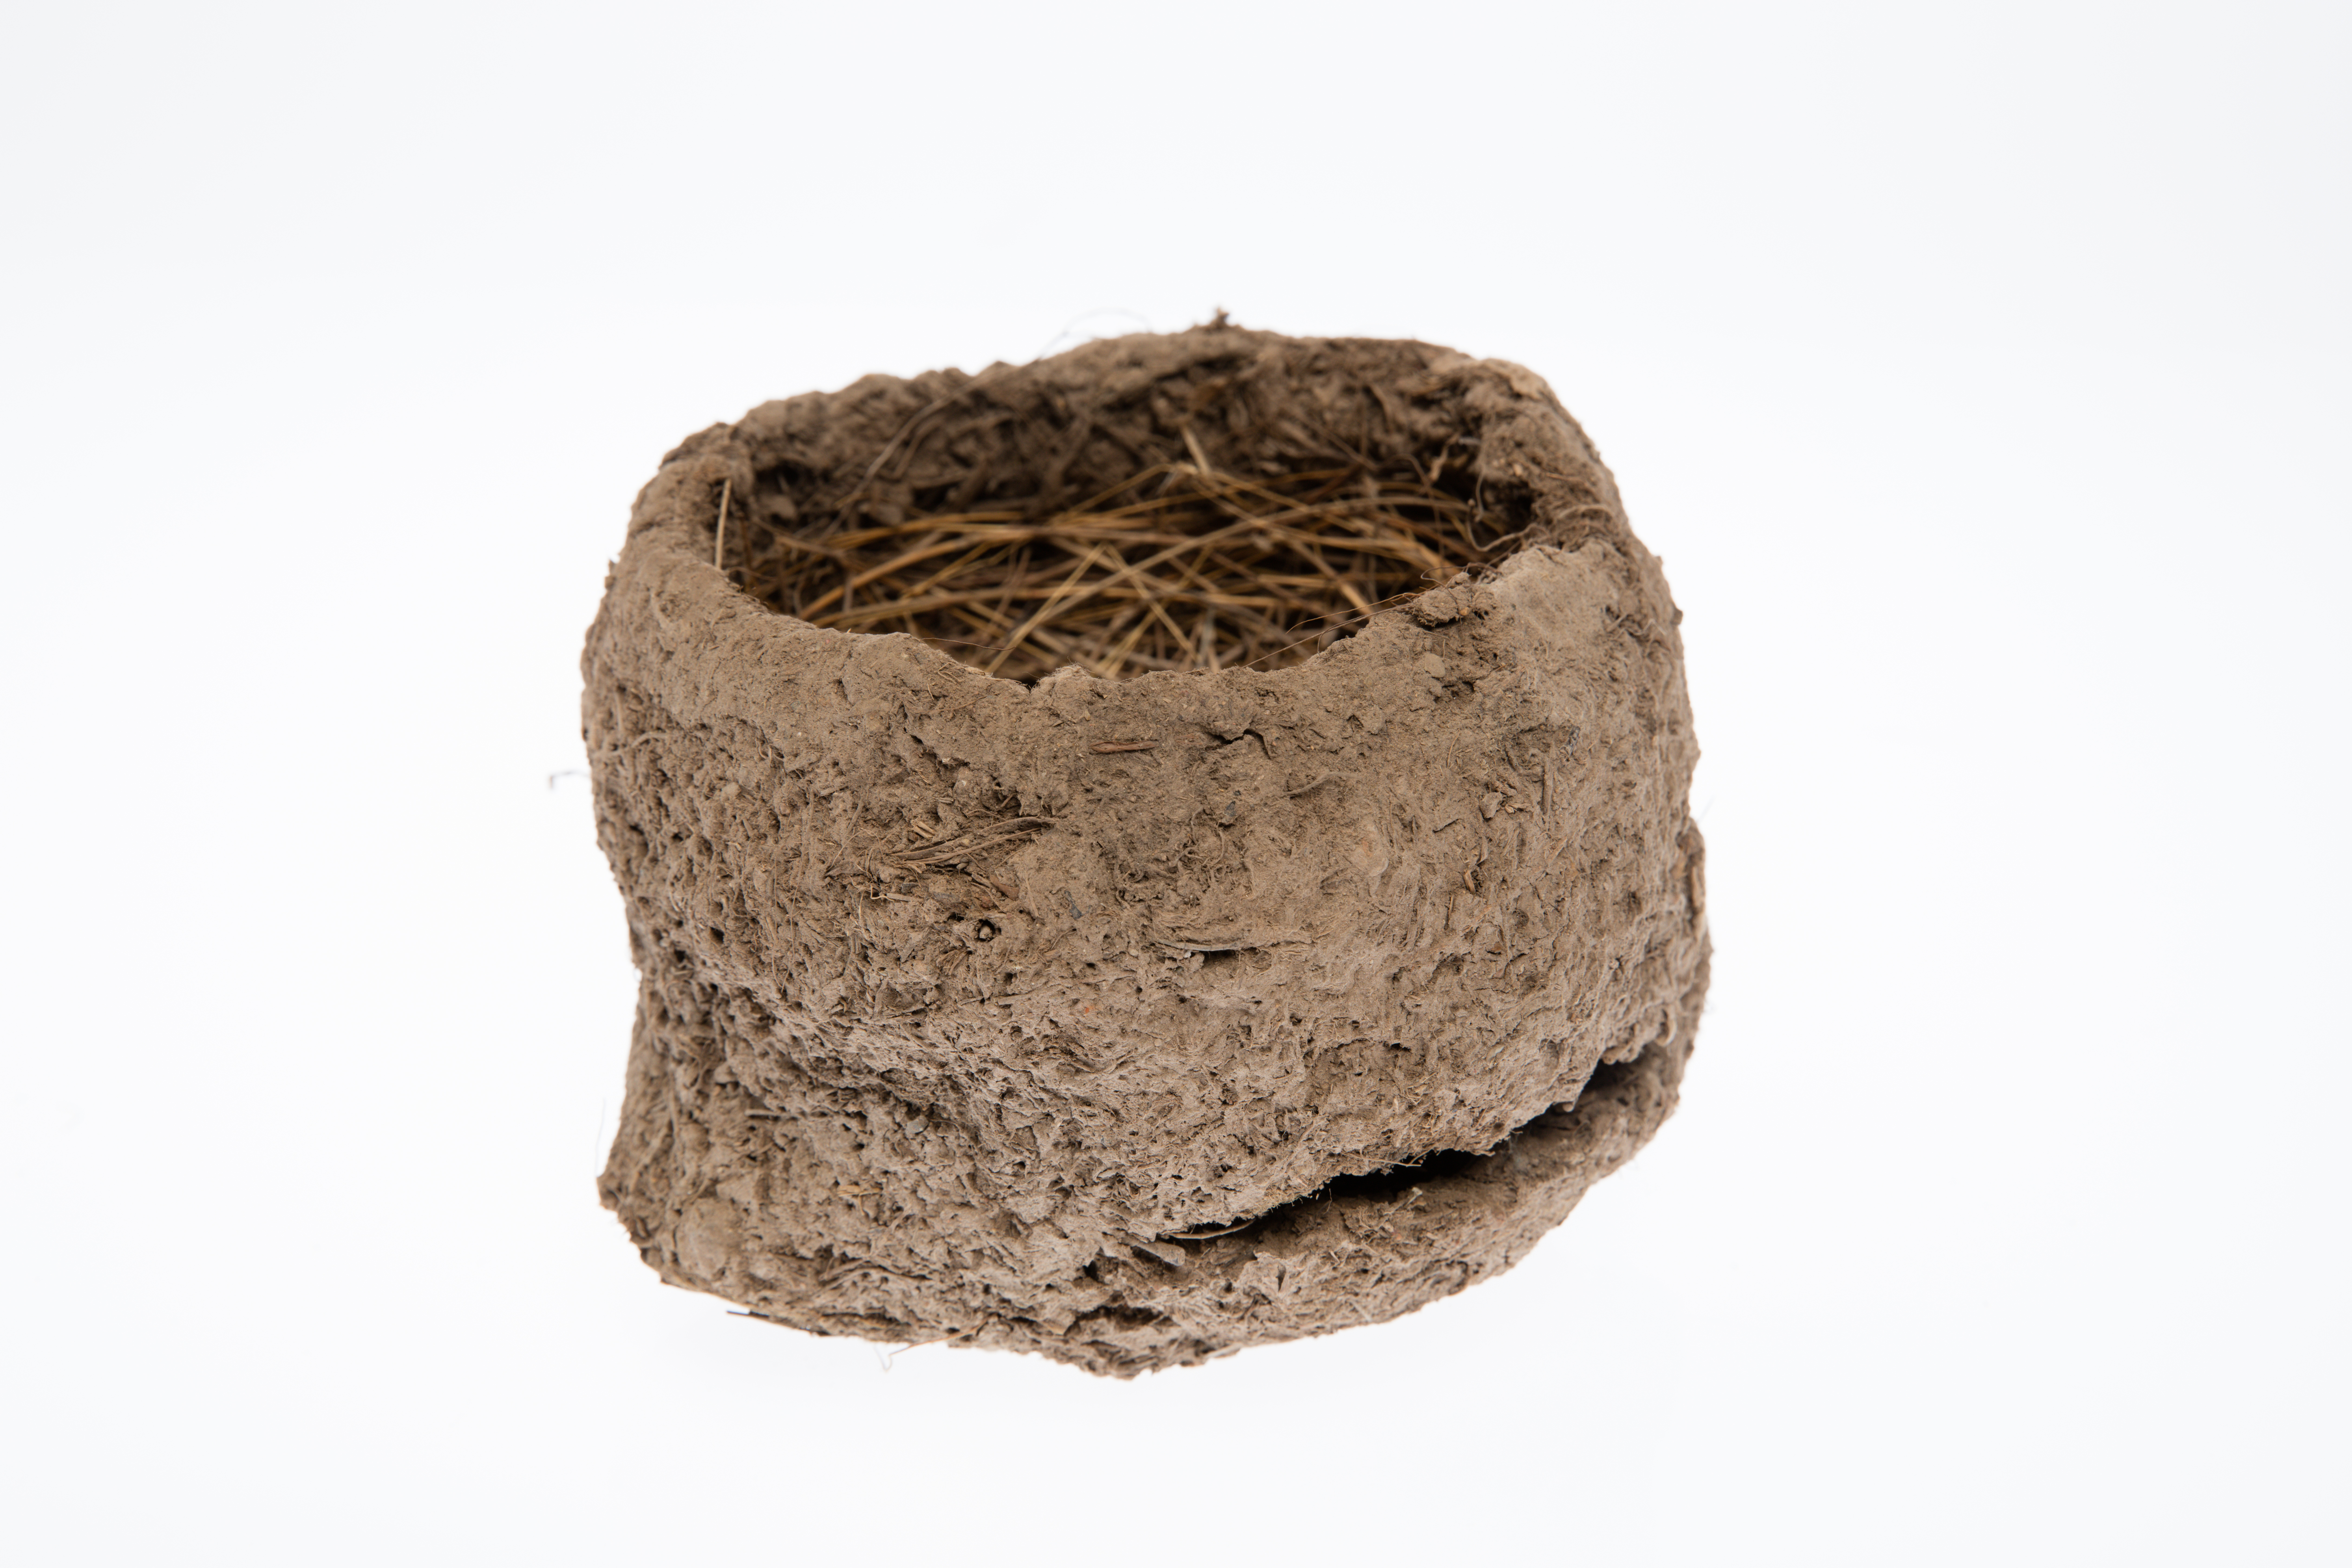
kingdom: Animalia
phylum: Chordata
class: Aves
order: Passeriformes
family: Monarchidae
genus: Grallina
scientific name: Grallina cyanoleuca
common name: Magpie-lark
